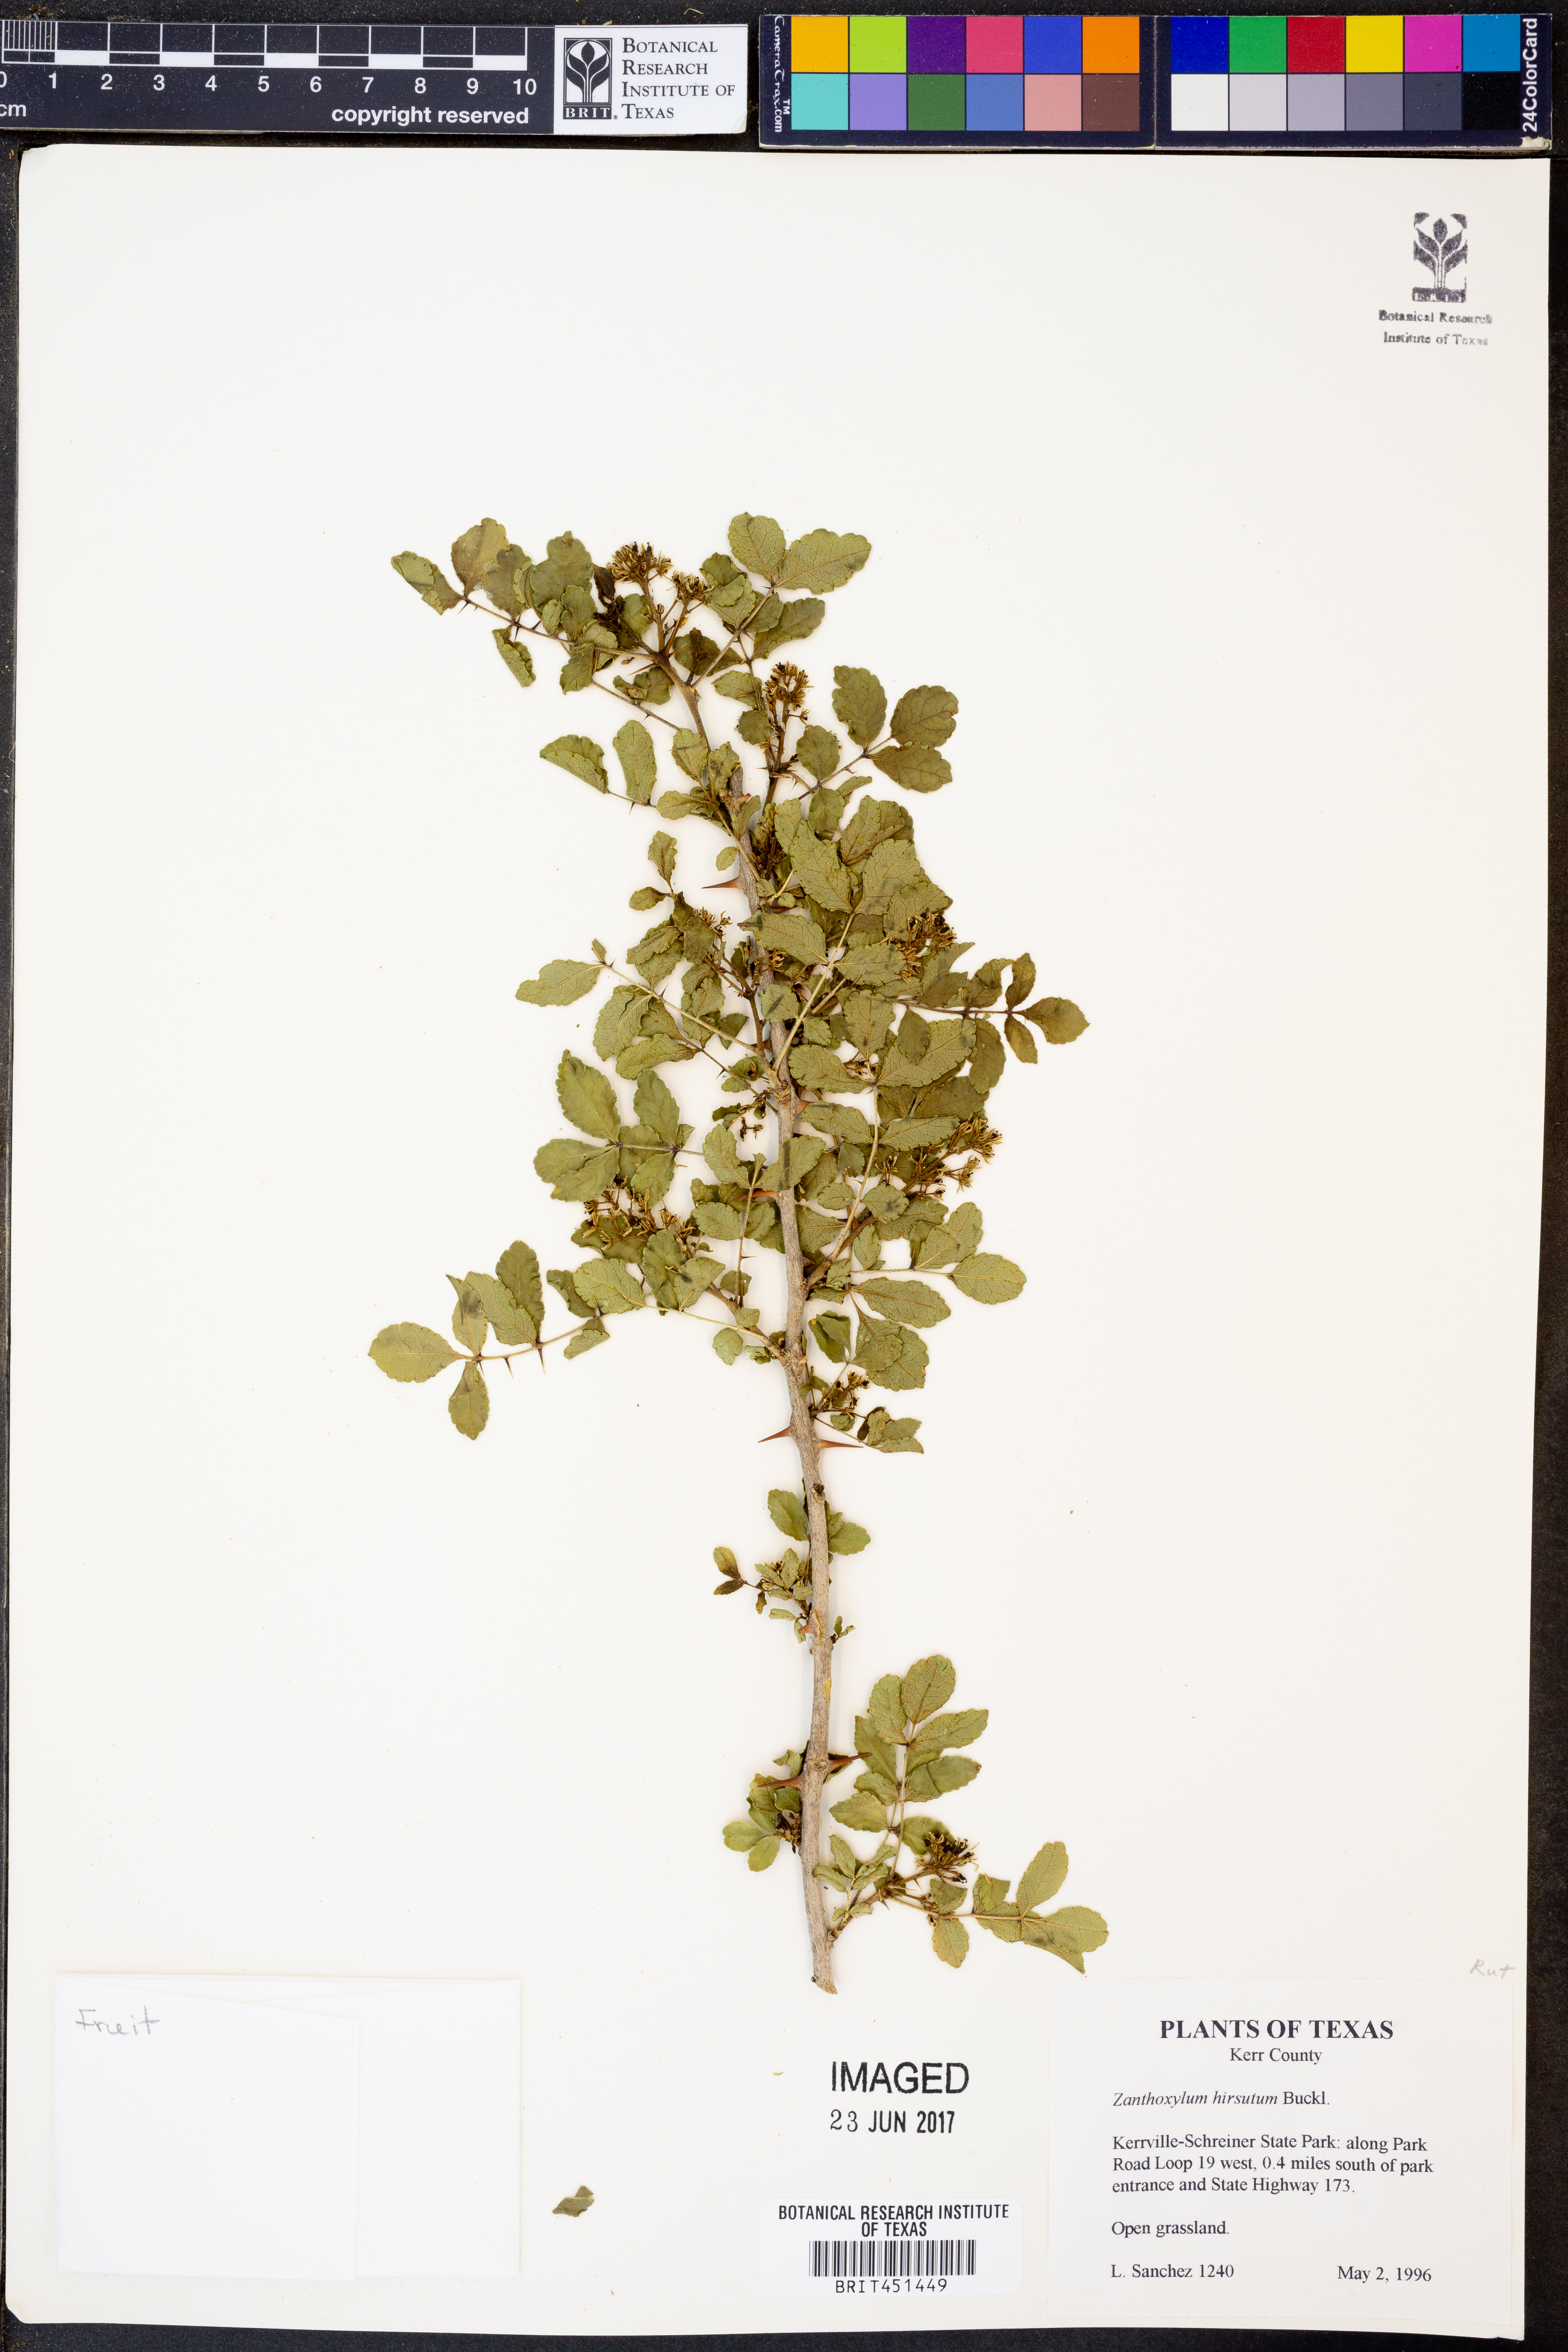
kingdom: Plantae
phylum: Tracheophyta
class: Magnoliopsida
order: Sapindales
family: Rutaceae
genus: Zanthoxylum
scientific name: Zanthoxylum clava-herculis
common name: Hercules'-club
